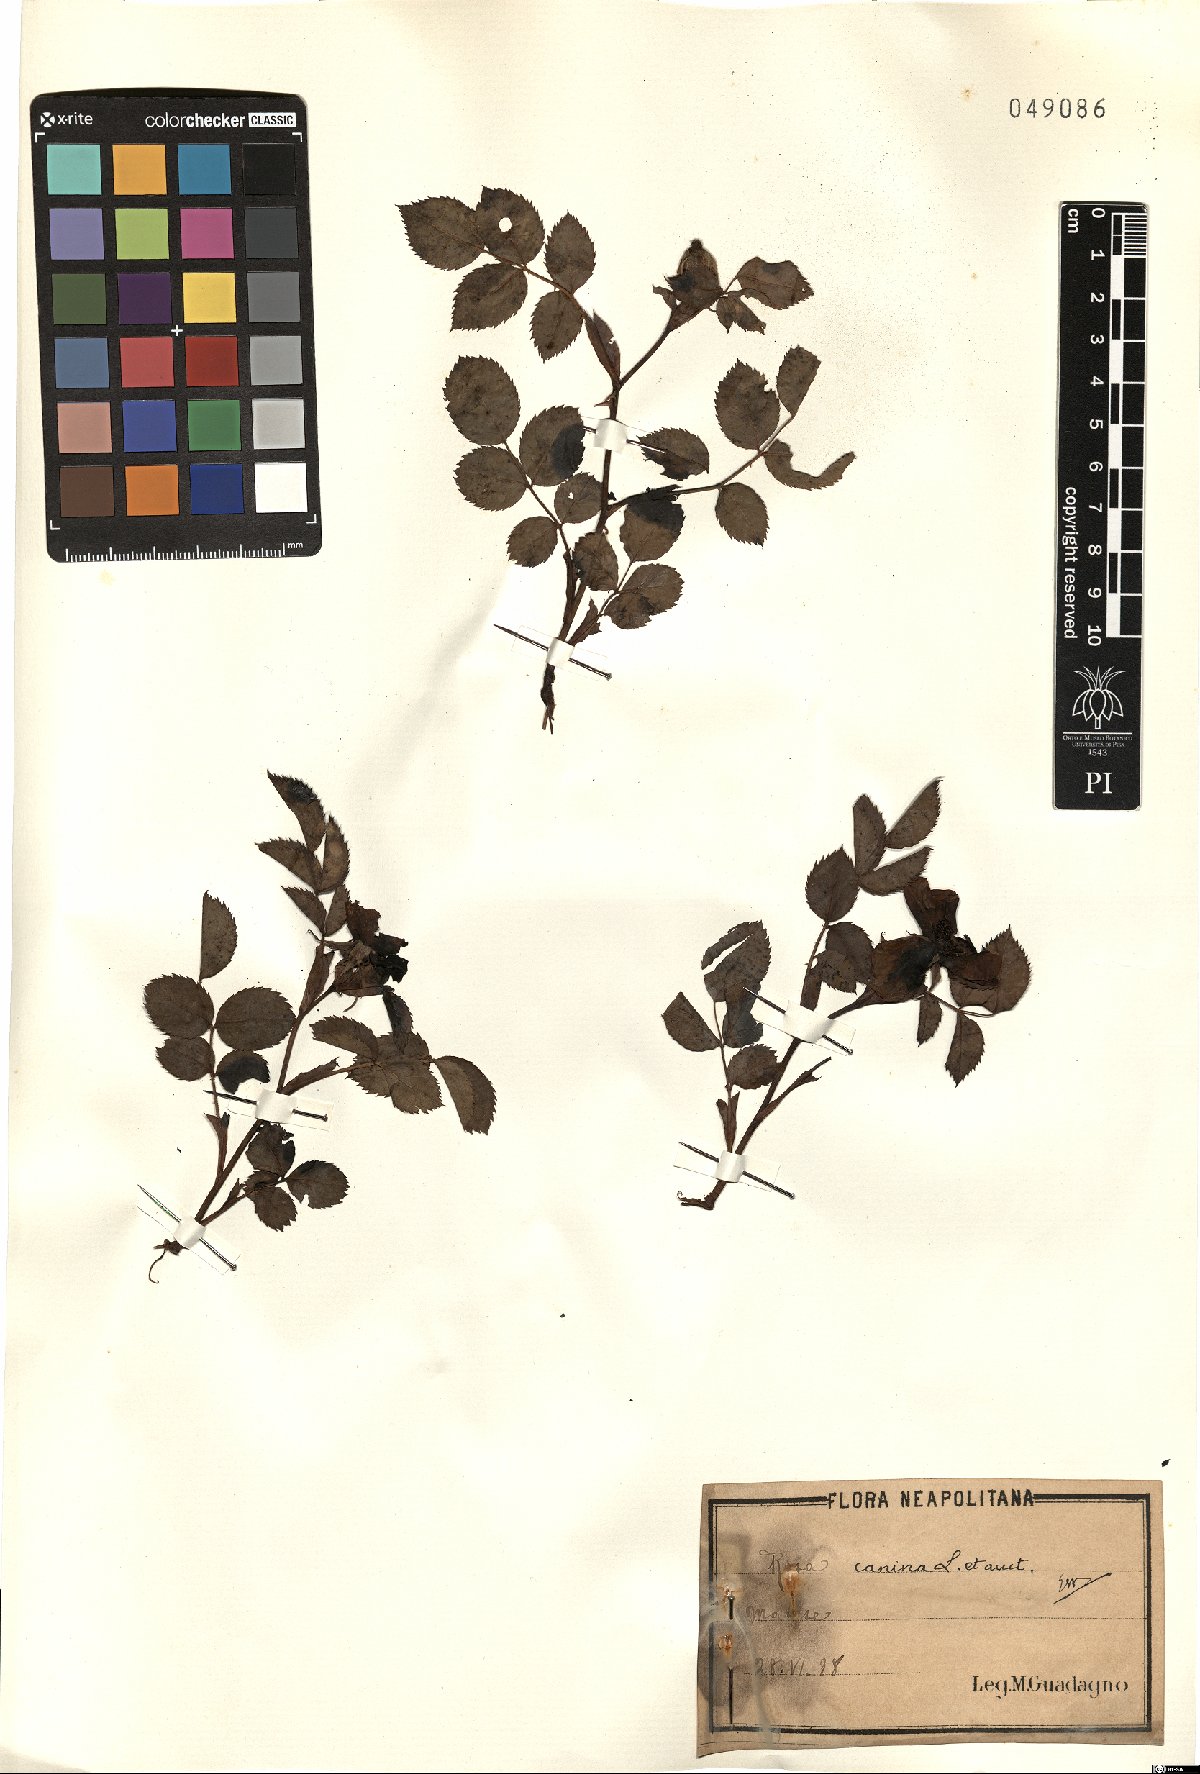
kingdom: Plantae
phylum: Tracheophyta
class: Magnoliopsida
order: Rosales
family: Rosaceae
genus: Rosa
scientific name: Rosa canina
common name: Dog rose
